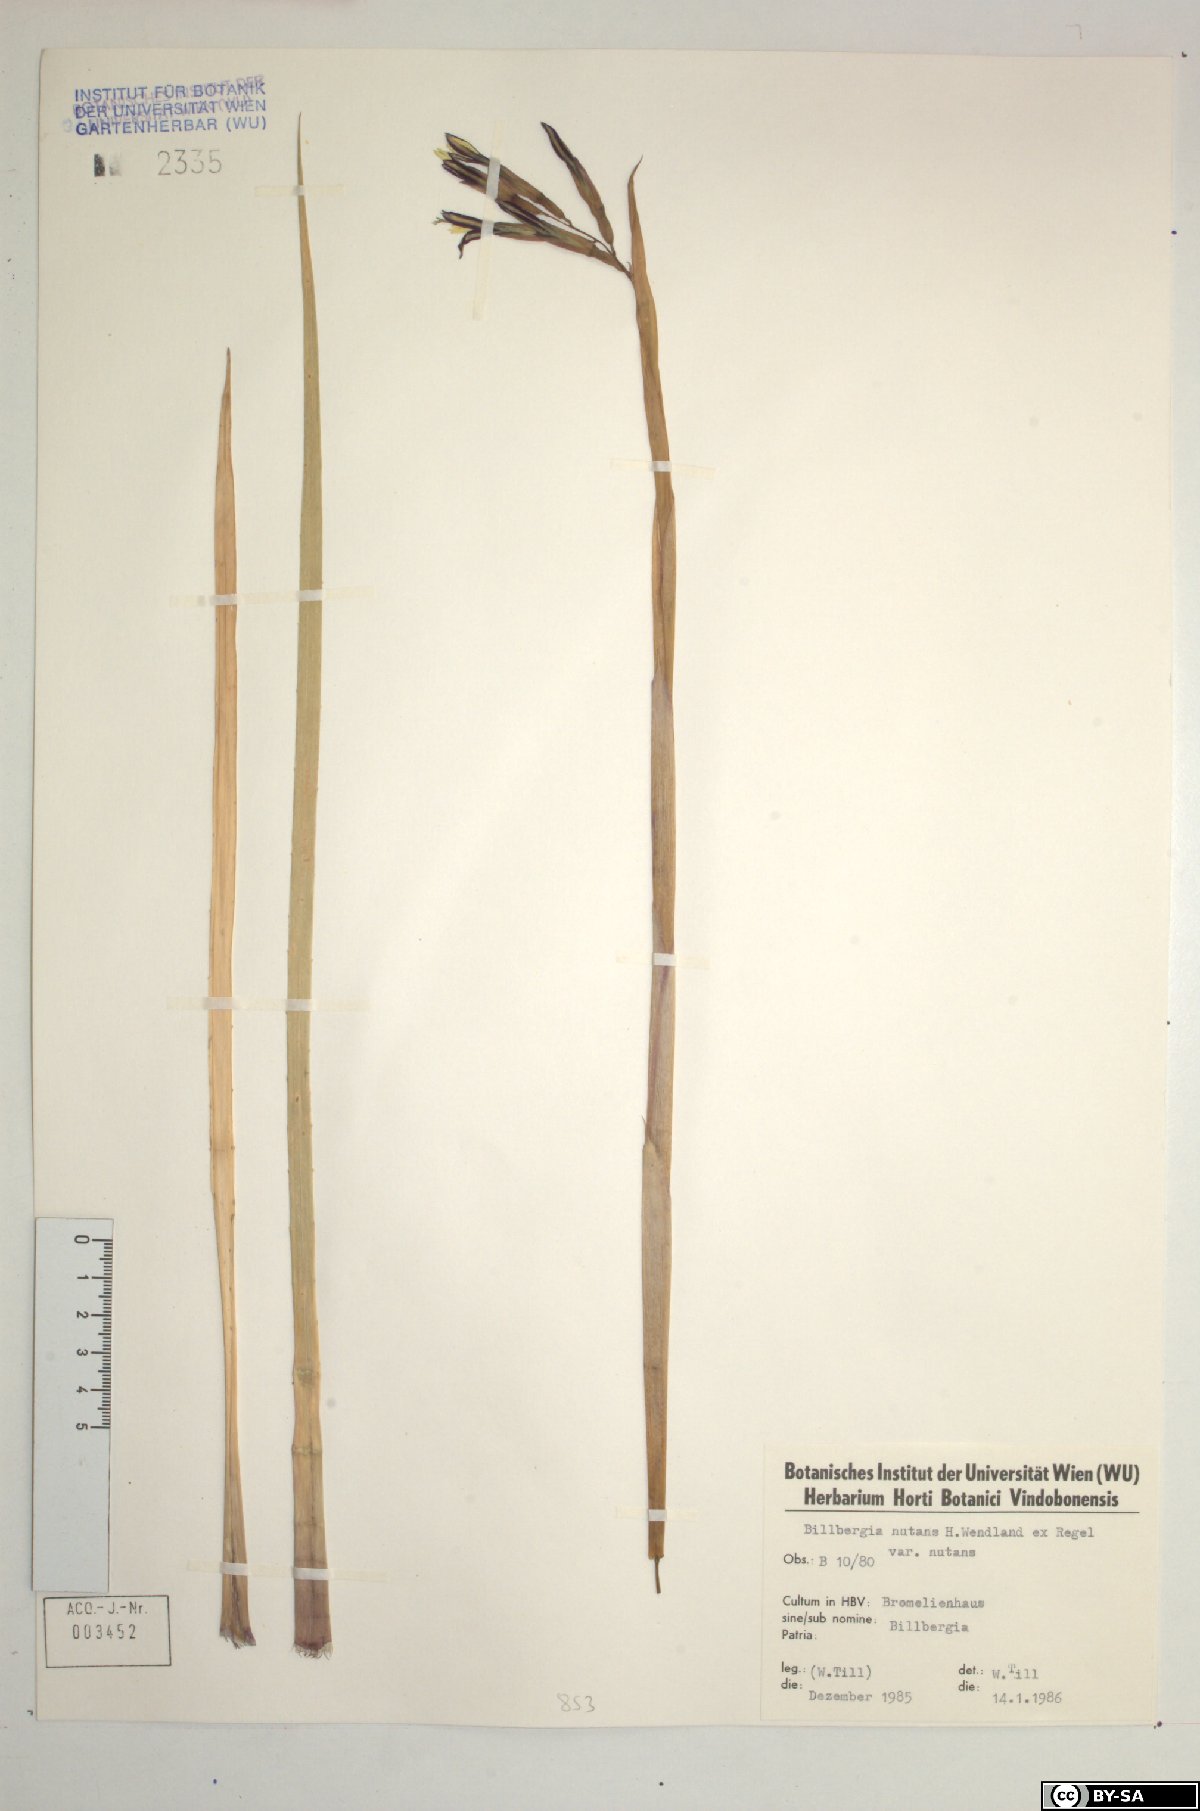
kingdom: Plantae
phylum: Tracheophyta
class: Liliopsida
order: Poales
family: Bromeliaceae
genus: Billbergia
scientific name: Billbergia nutans
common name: Friendship-plant
